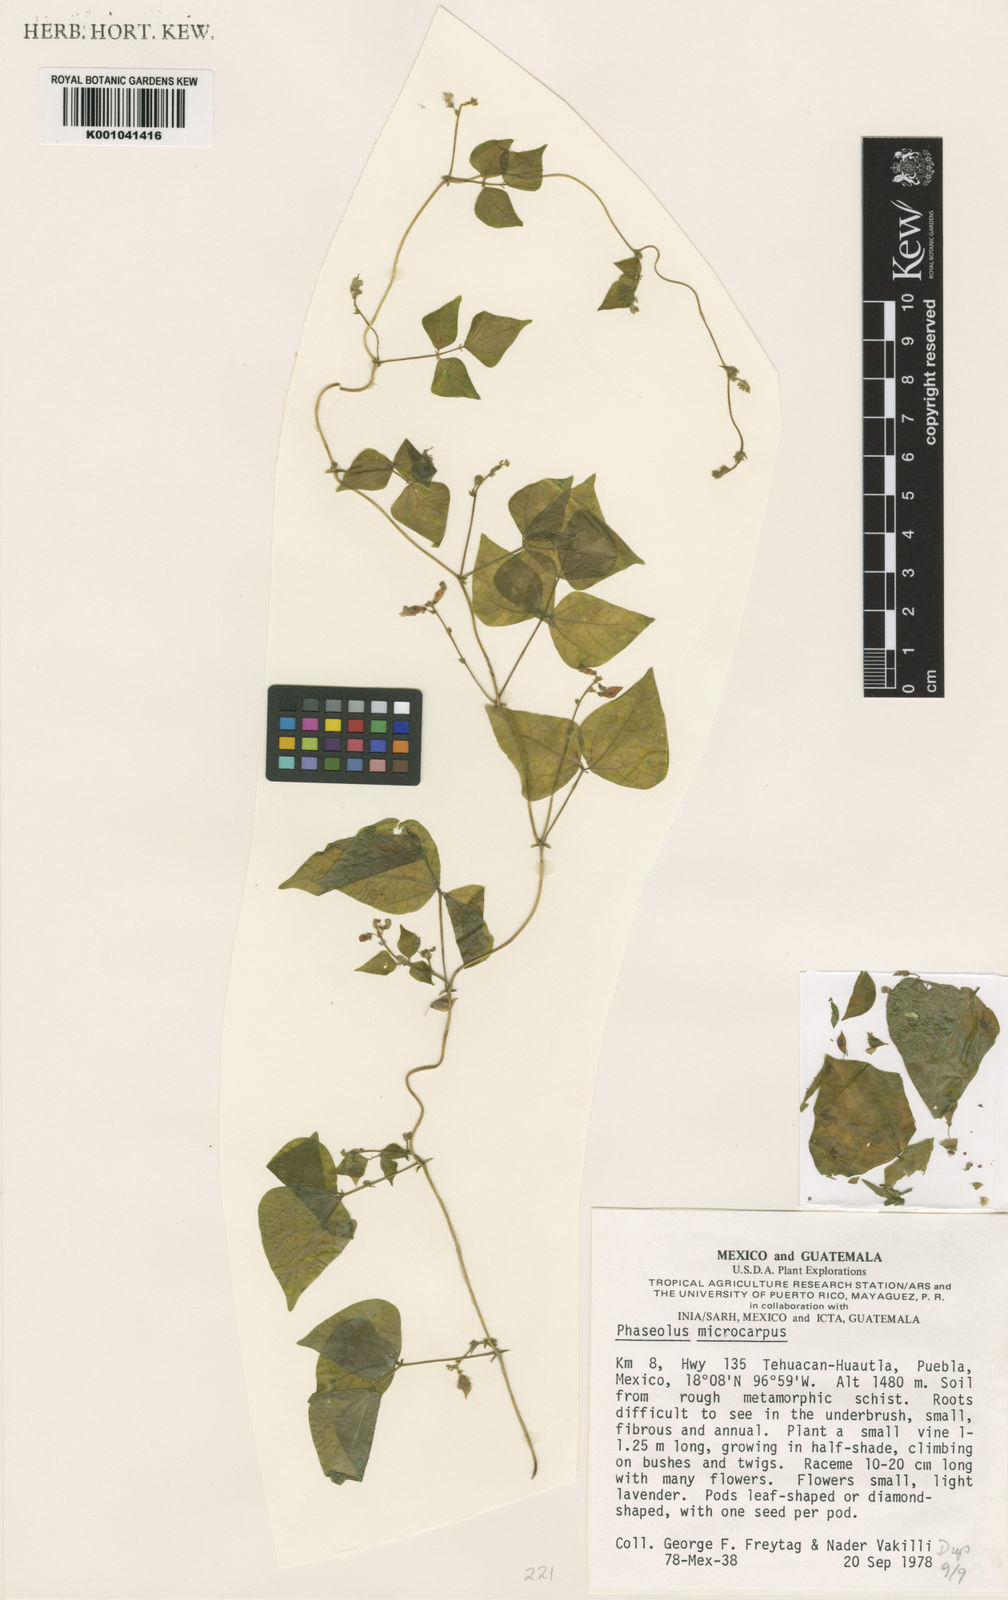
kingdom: Plantae
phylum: Tracheophyta
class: Magnoliopsida
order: Fabales
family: Fabaceae
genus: Phaseolus
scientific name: Phaseolus microcarpus
